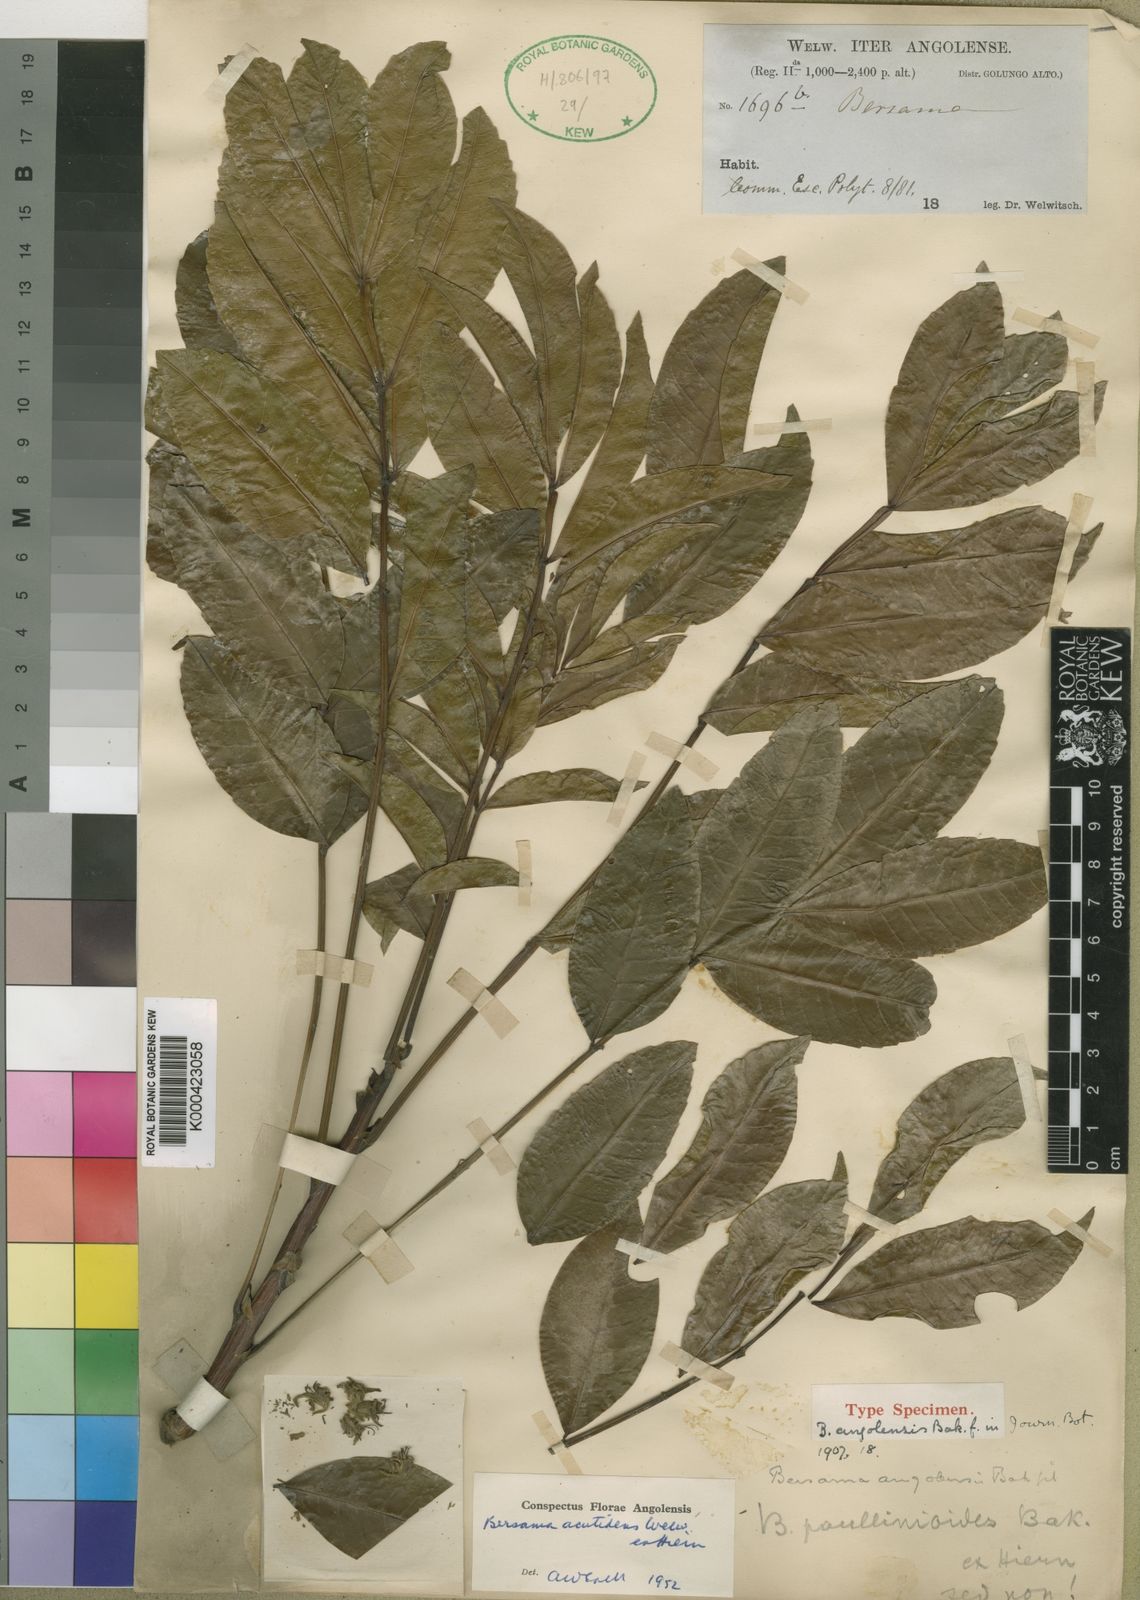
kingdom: Plantae
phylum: Tracheophyta
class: Magnoliopsida
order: Geraniales
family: Melianthaceae
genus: Bersama
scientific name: Bersama acutidens
